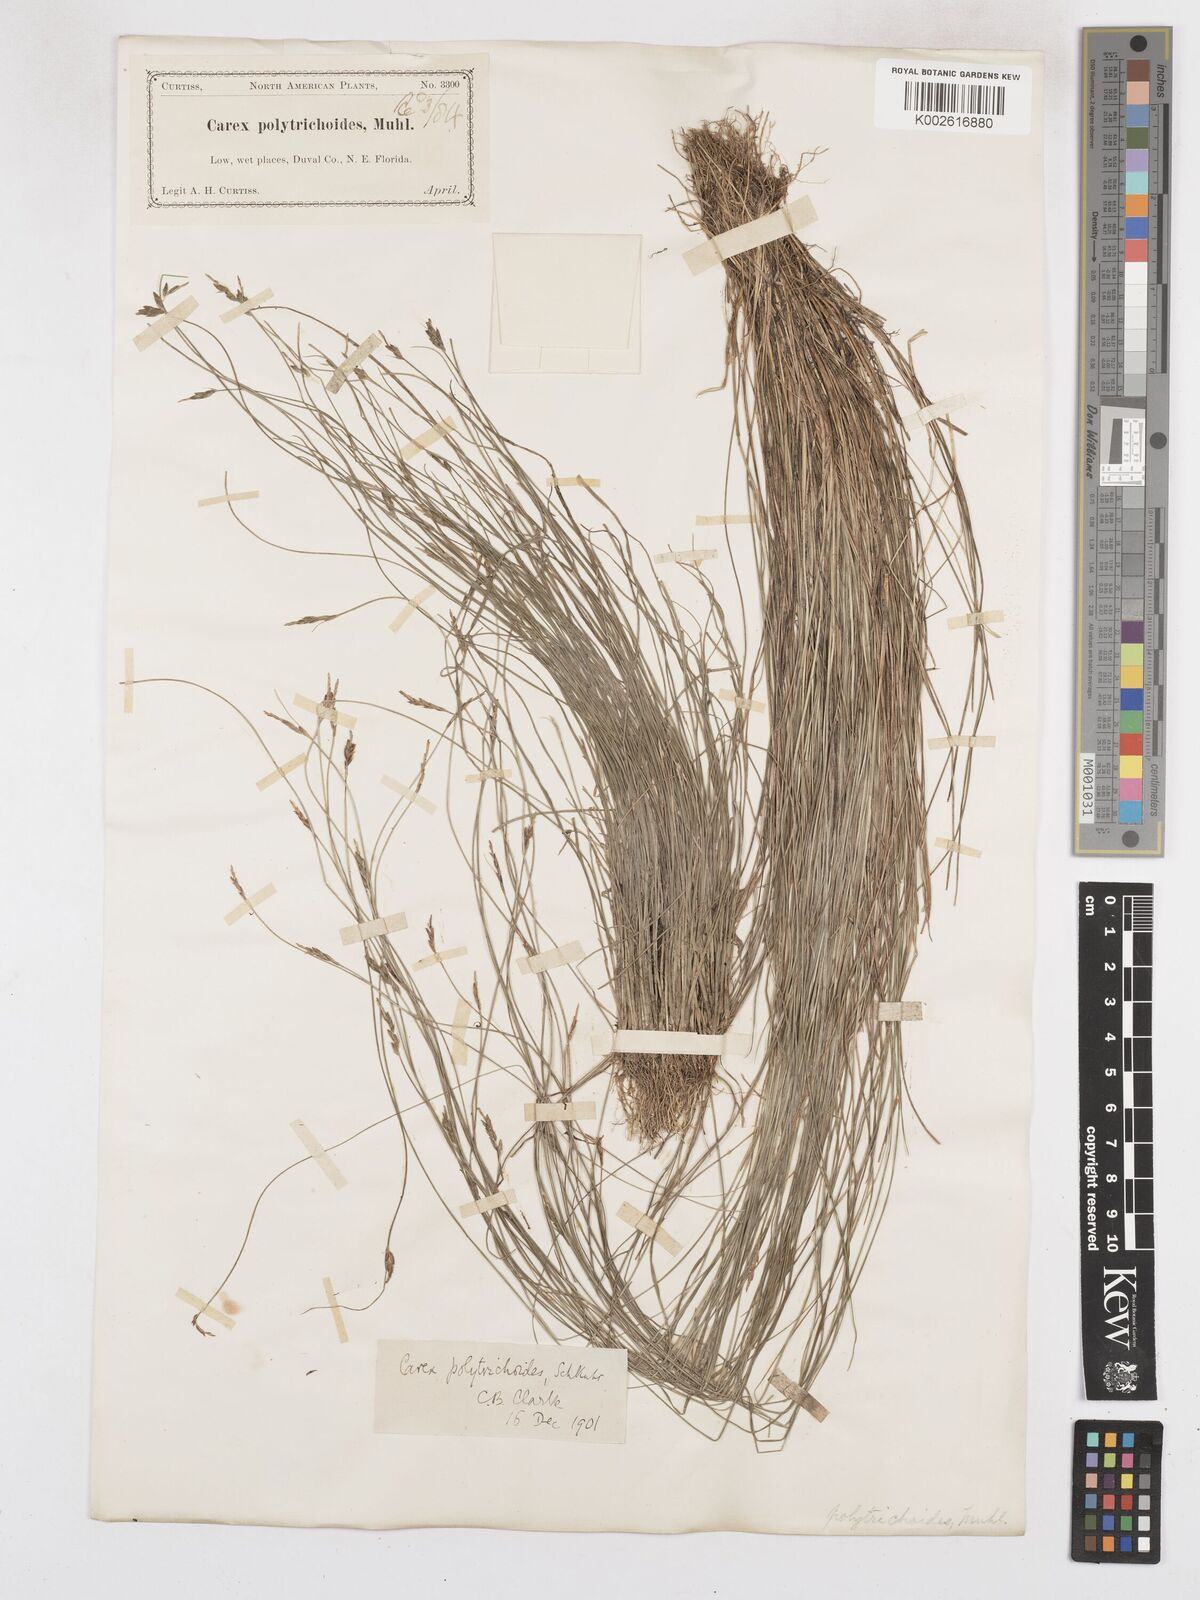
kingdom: Plantae
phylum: Tracheophyta
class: Liliopsida
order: Poales
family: Cyperaceae
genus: Carex
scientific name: Carex leptalea
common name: Bristly-stalked sedge
